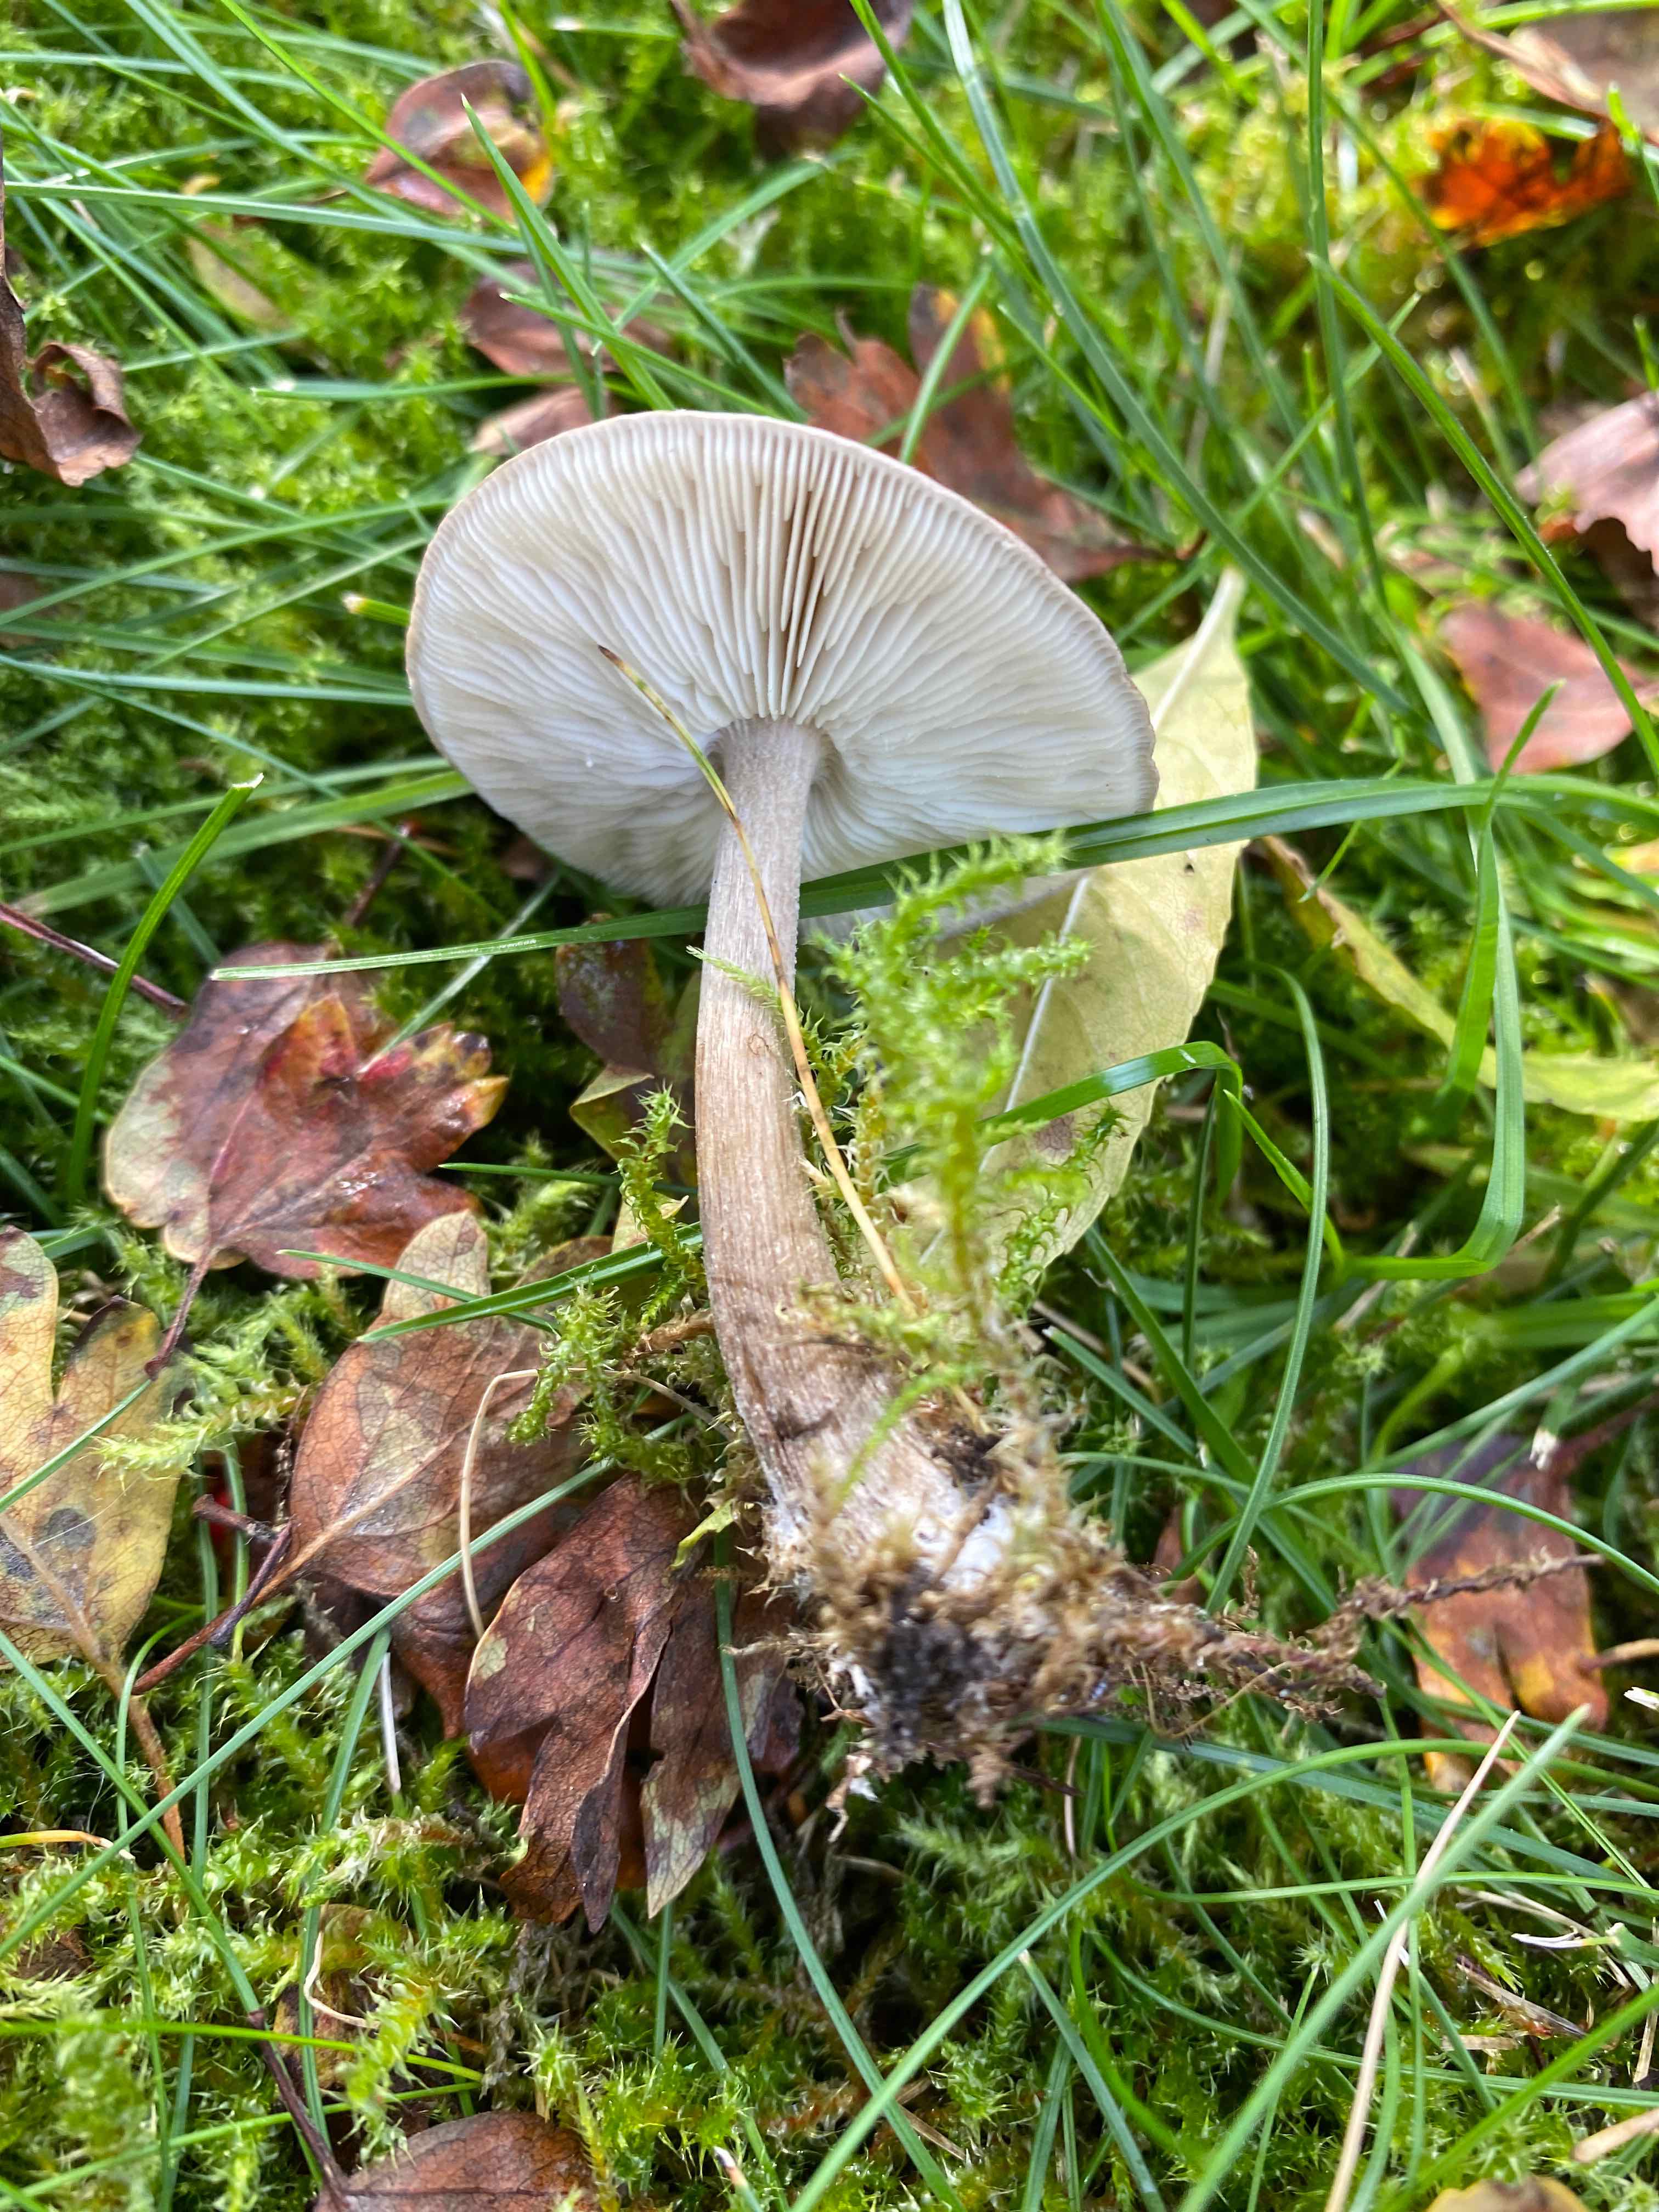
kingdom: Fungi
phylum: Basidiomycota
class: Agaricomycetes
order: Agaricales
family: Tricholomataceae
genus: Melanoleuca
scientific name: Melanoleuca
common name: munkehat
